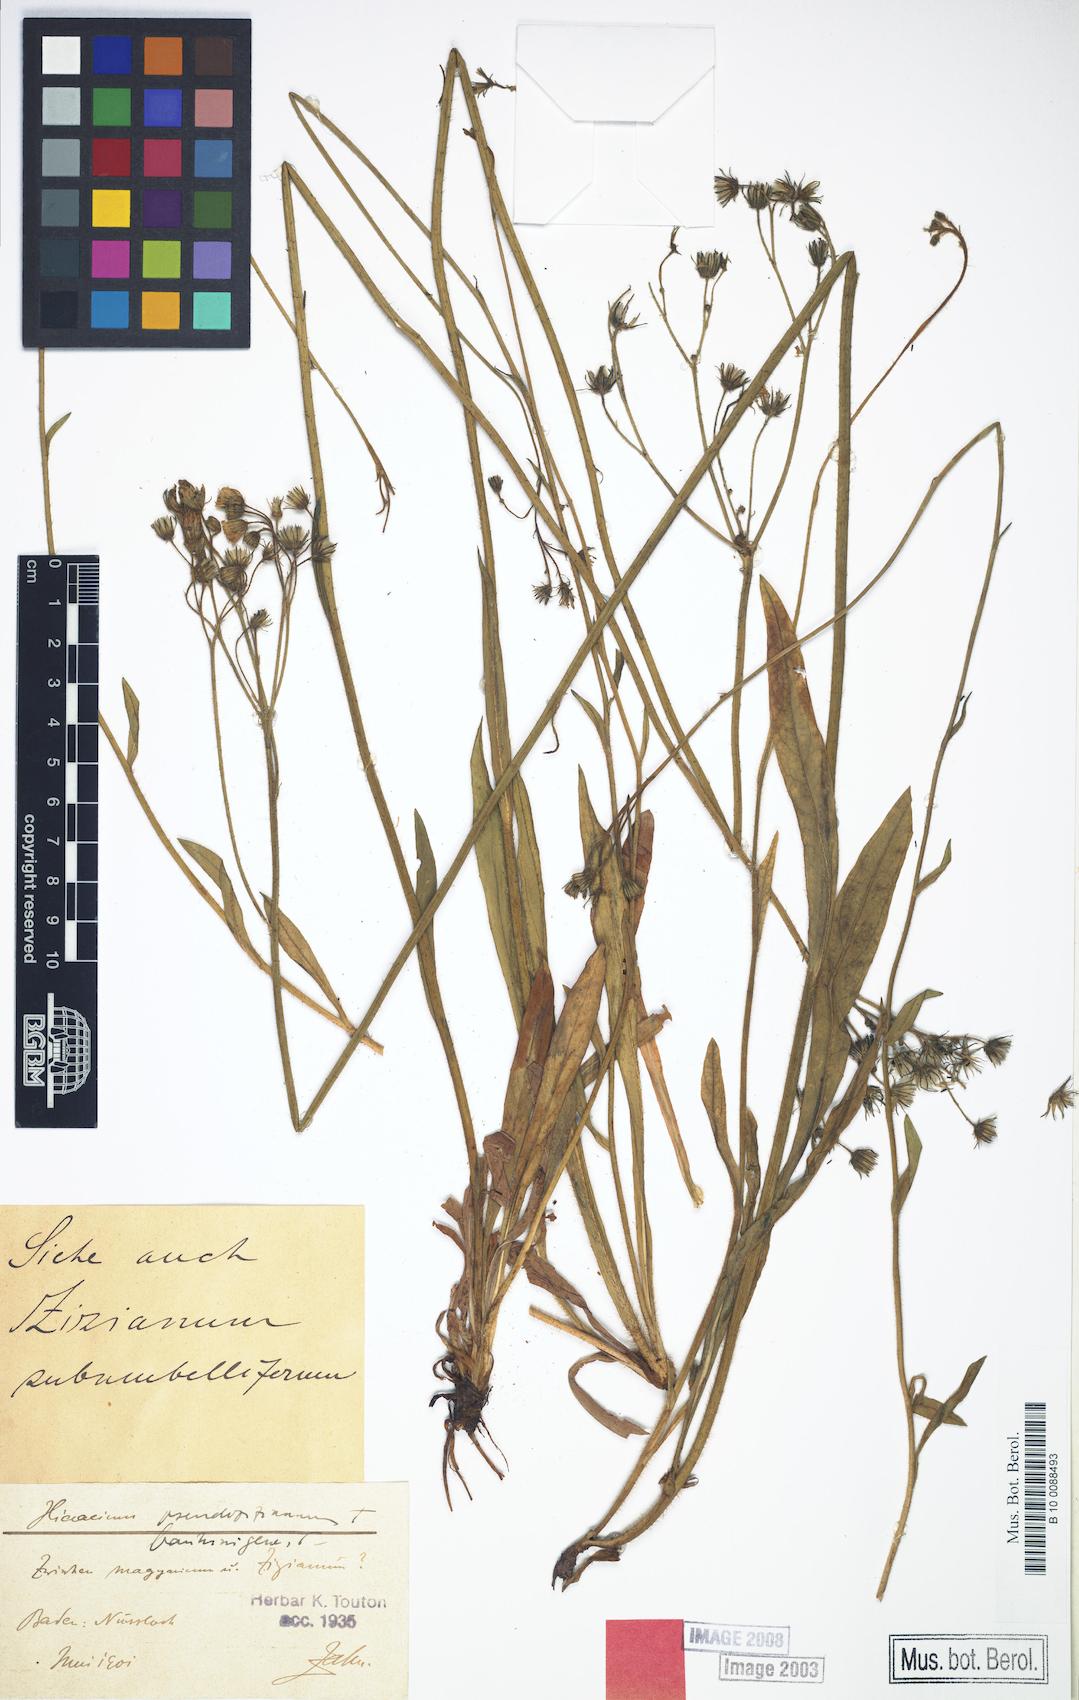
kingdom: Plantae
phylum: Tracheophyta
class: Magnoliopsida
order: Asterales
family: Asteraceae
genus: Hieracium
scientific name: Hieracium
